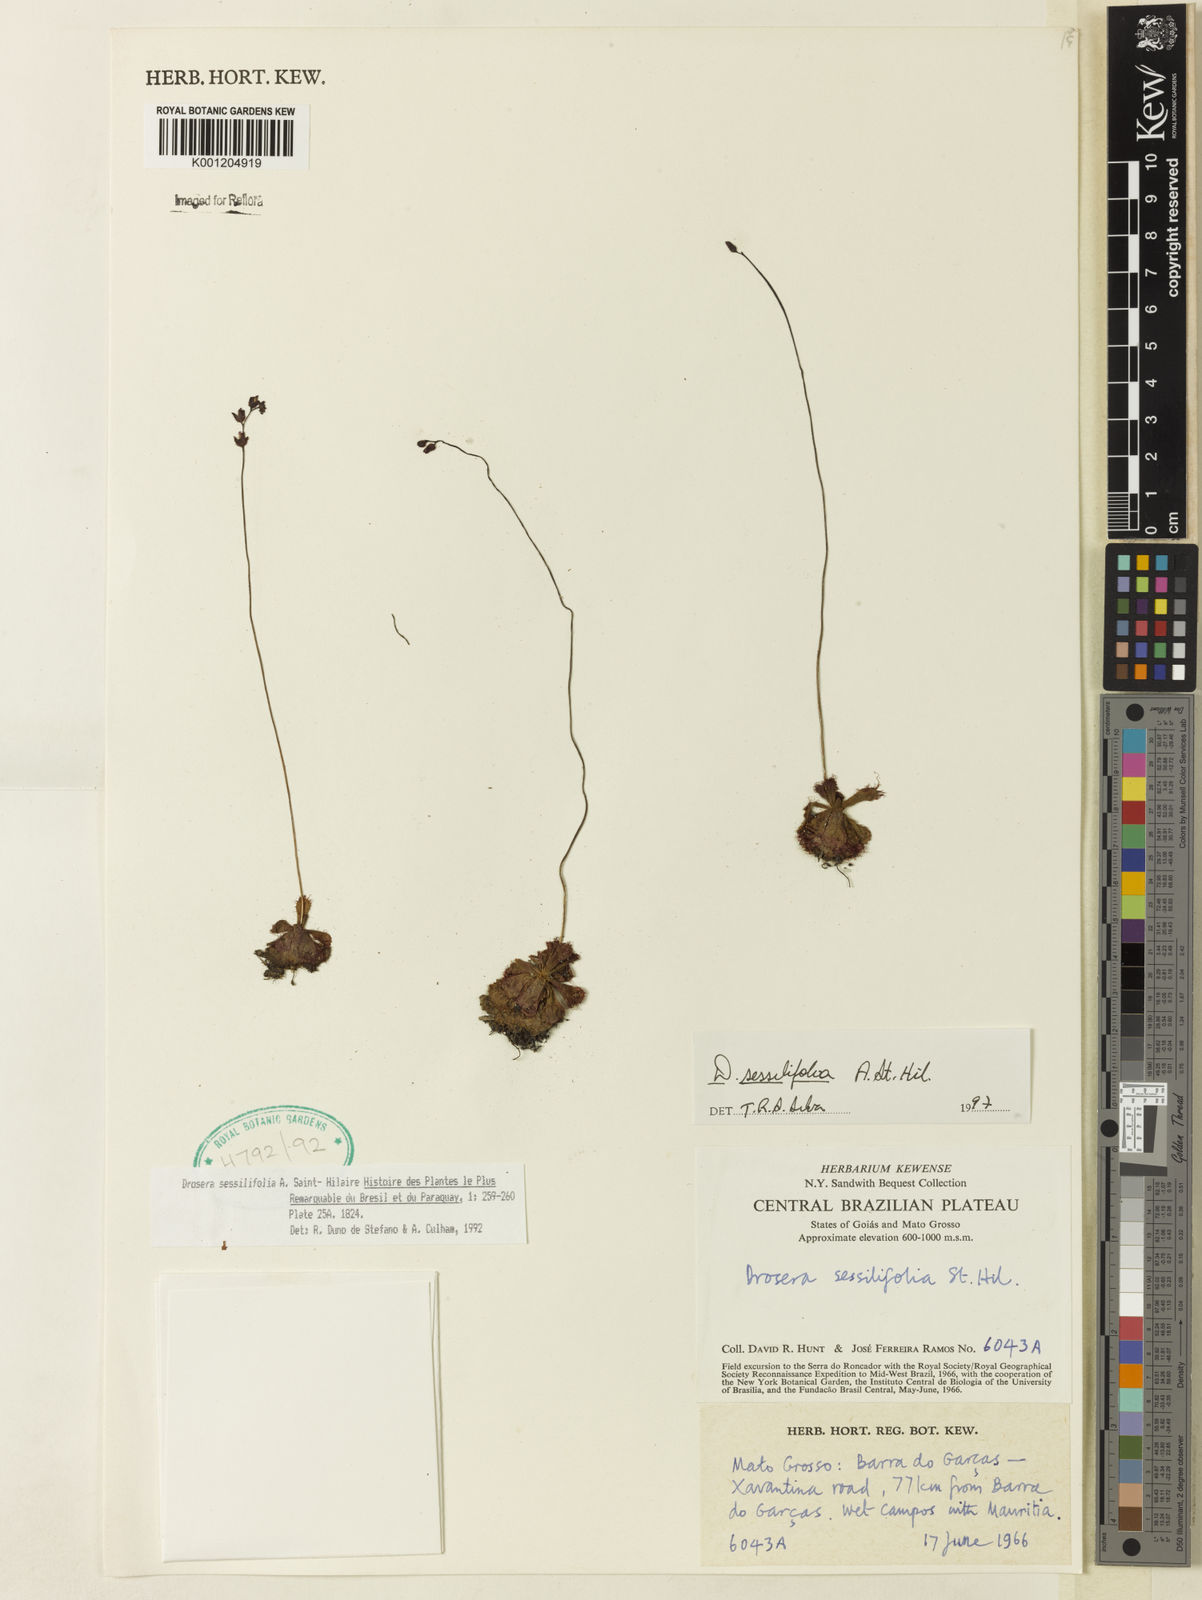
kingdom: Plantae
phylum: Tracheophyta
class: Magnoliopsida
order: Caryophyllales
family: Droseraceae
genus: Drosera
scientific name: Drosera sessilifolia
